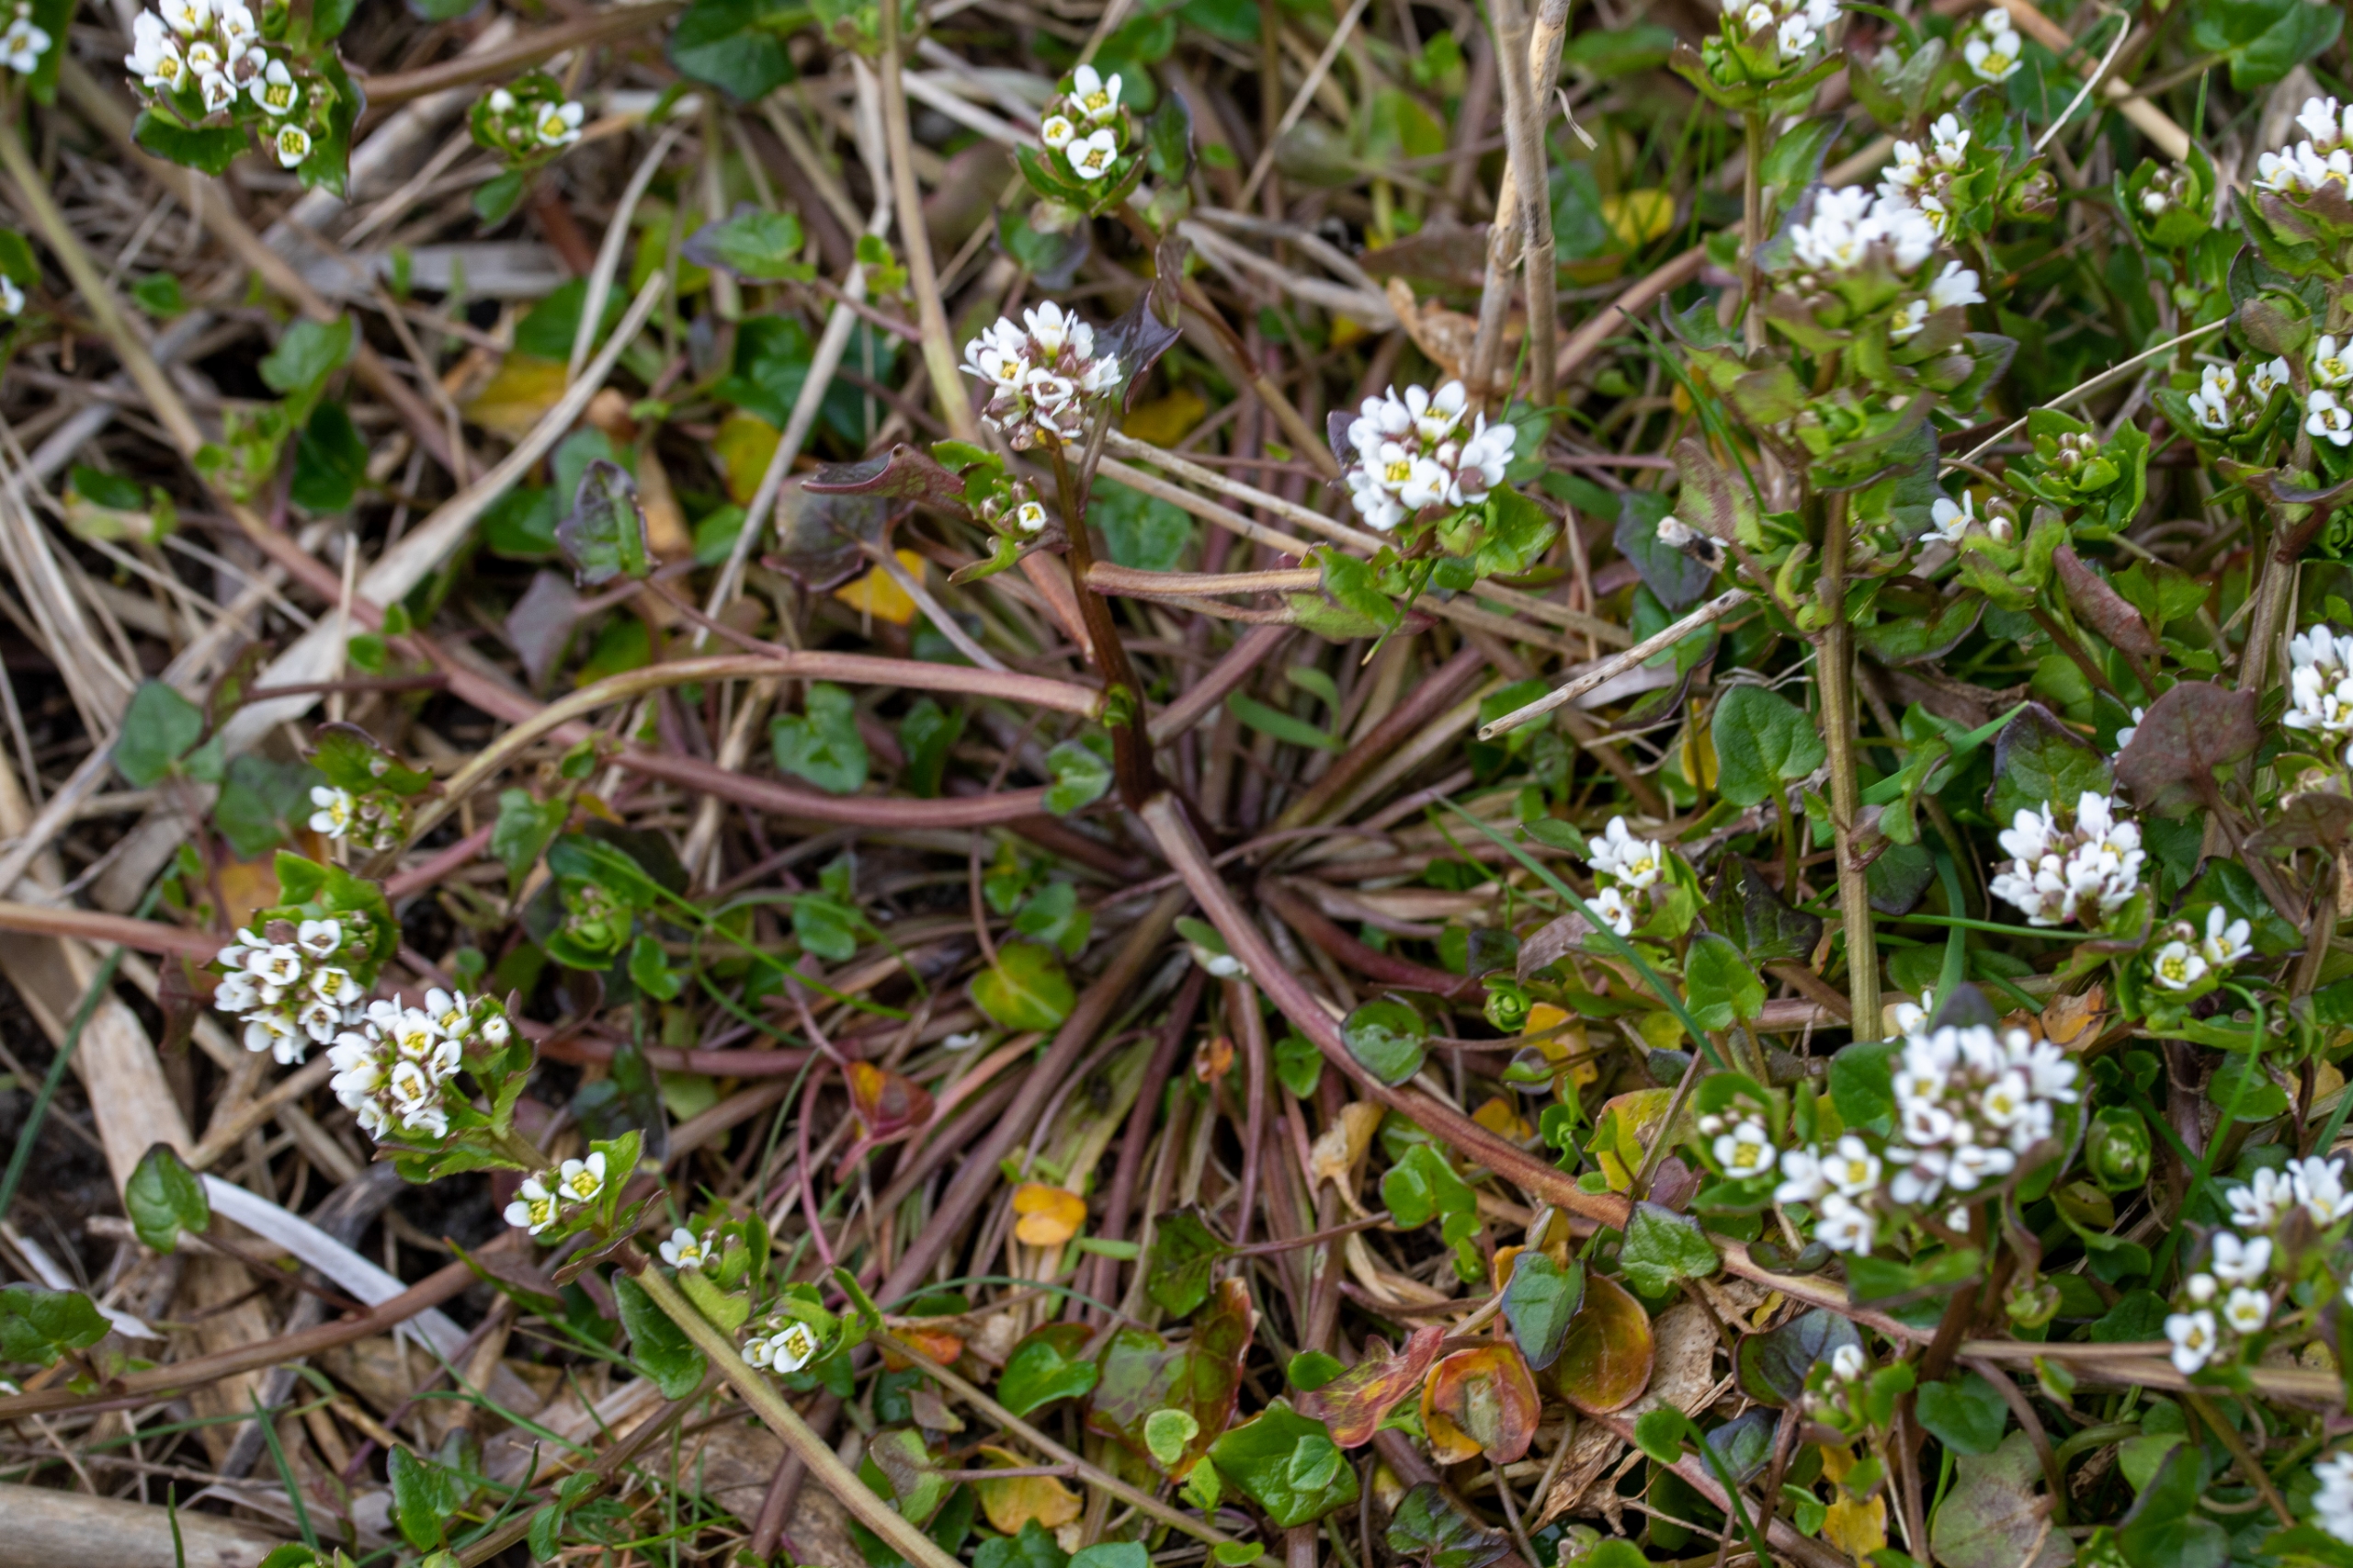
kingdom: Plantae
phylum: Tracheophyta
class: Magnoliopsida
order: Brassicales
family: Brassicaceae
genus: Cochlearia
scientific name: Cochlearia danica
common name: Dansk kokleare
